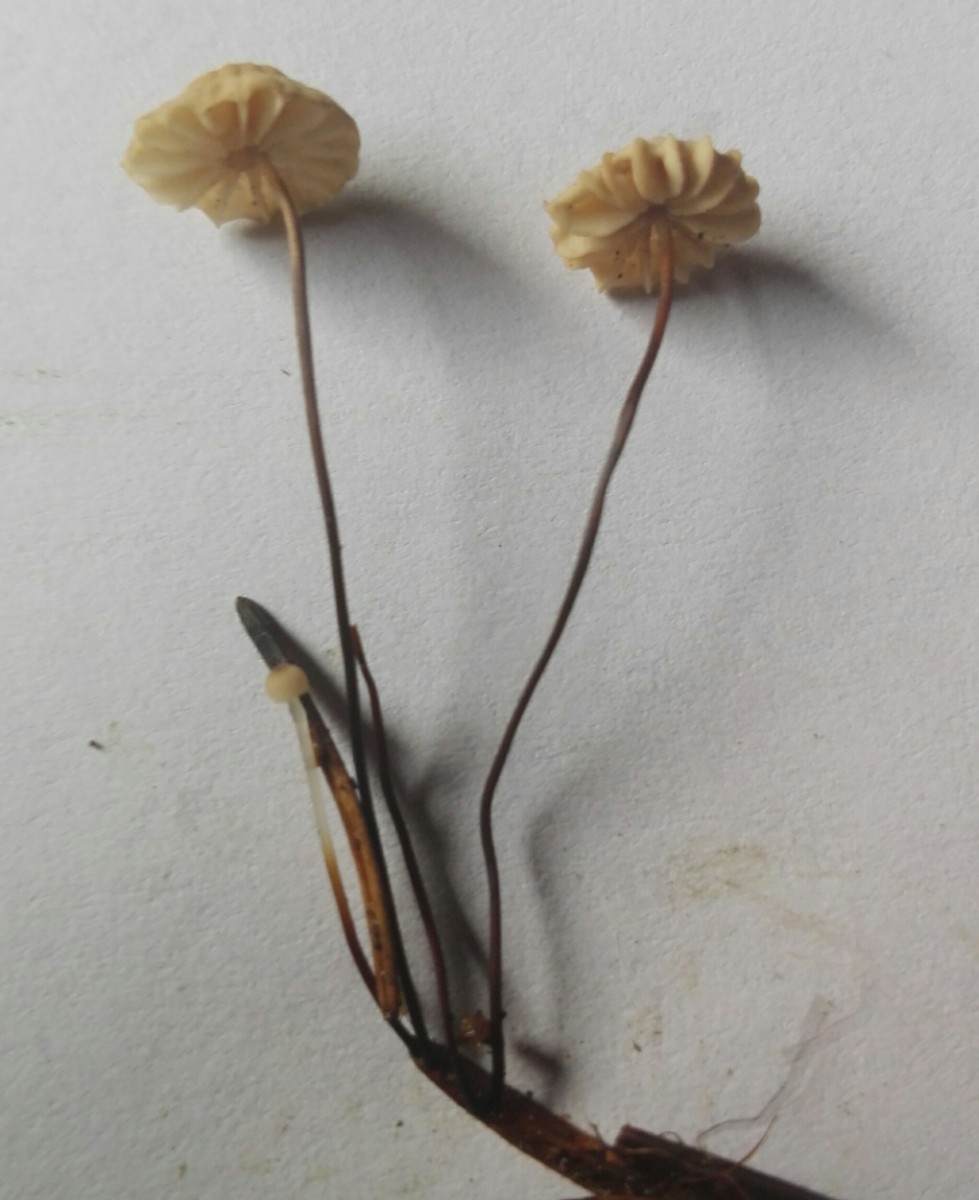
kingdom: Fungi
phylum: Basidiomycota
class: Agaricomycetes
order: Agaricales
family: Marasmiaceae
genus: Marasmius
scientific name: Marasmius wettsteinii
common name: Wettsteins bruskhat
